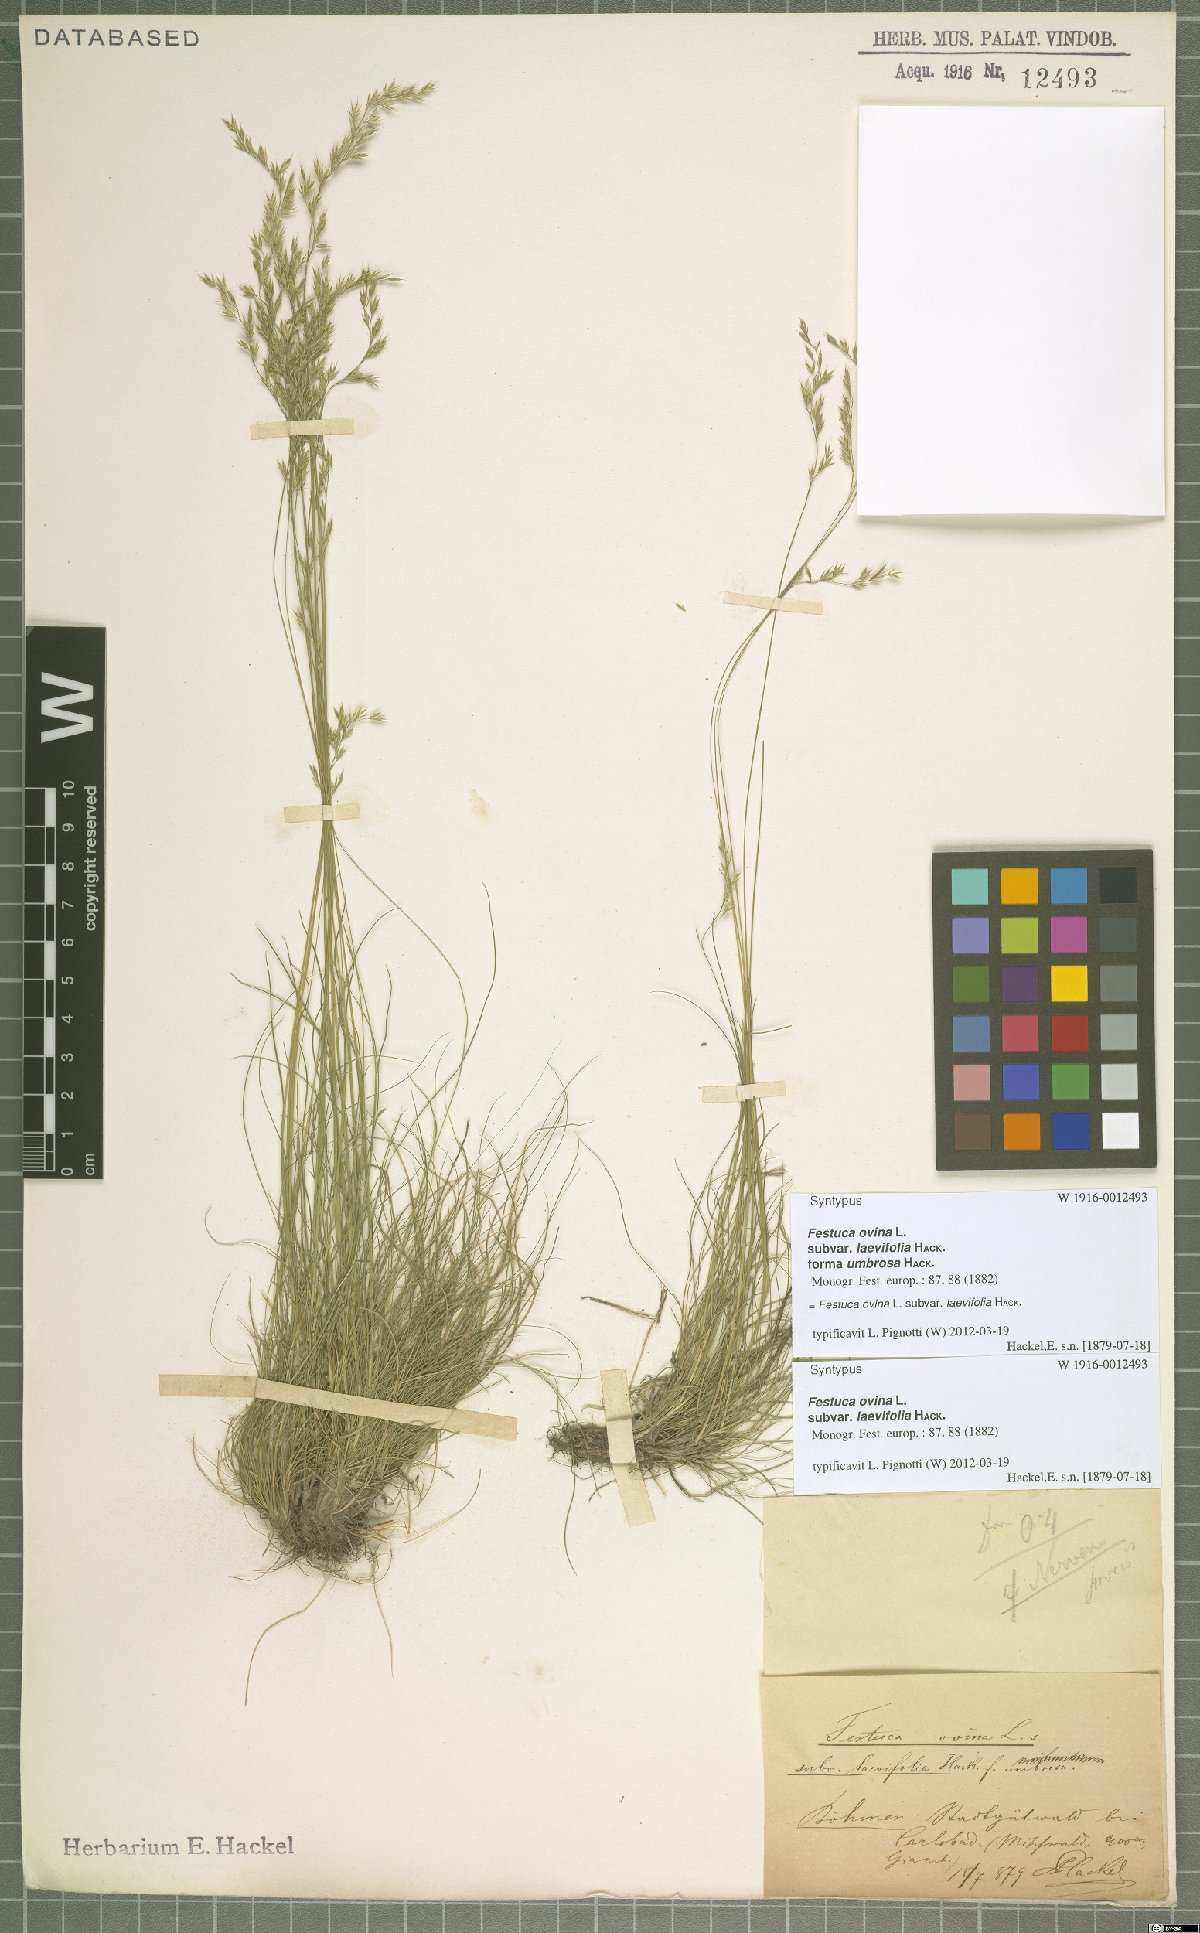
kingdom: Plantae
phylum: Tracheophyta
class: Liliopsida
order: Poales
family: Poaceae
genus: Festuca
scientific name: Festuca ovina
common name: Sheep fescue
